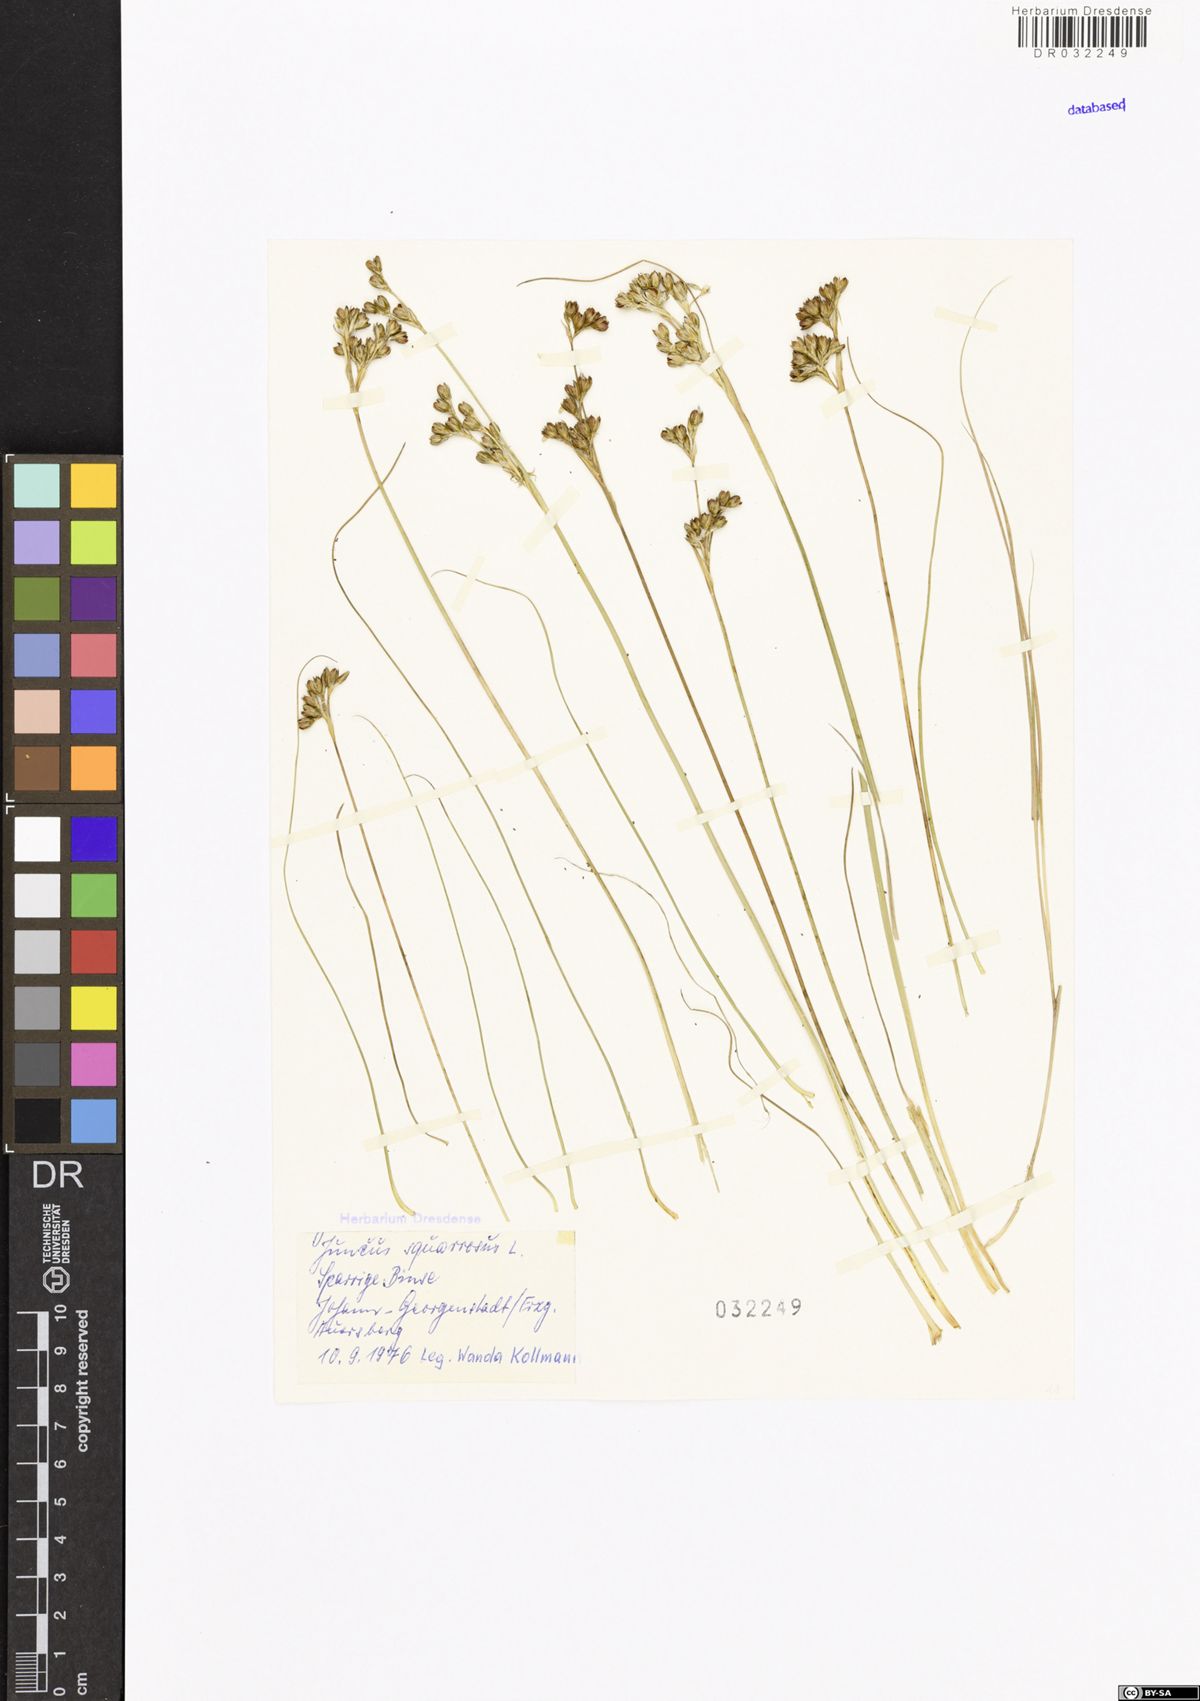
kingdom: Plantae
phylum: Tracheophyta
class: Liliopsida
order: Poales
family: Juncaceae
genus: Juncus
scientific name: Juncus squarrosus
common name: Heath rush
